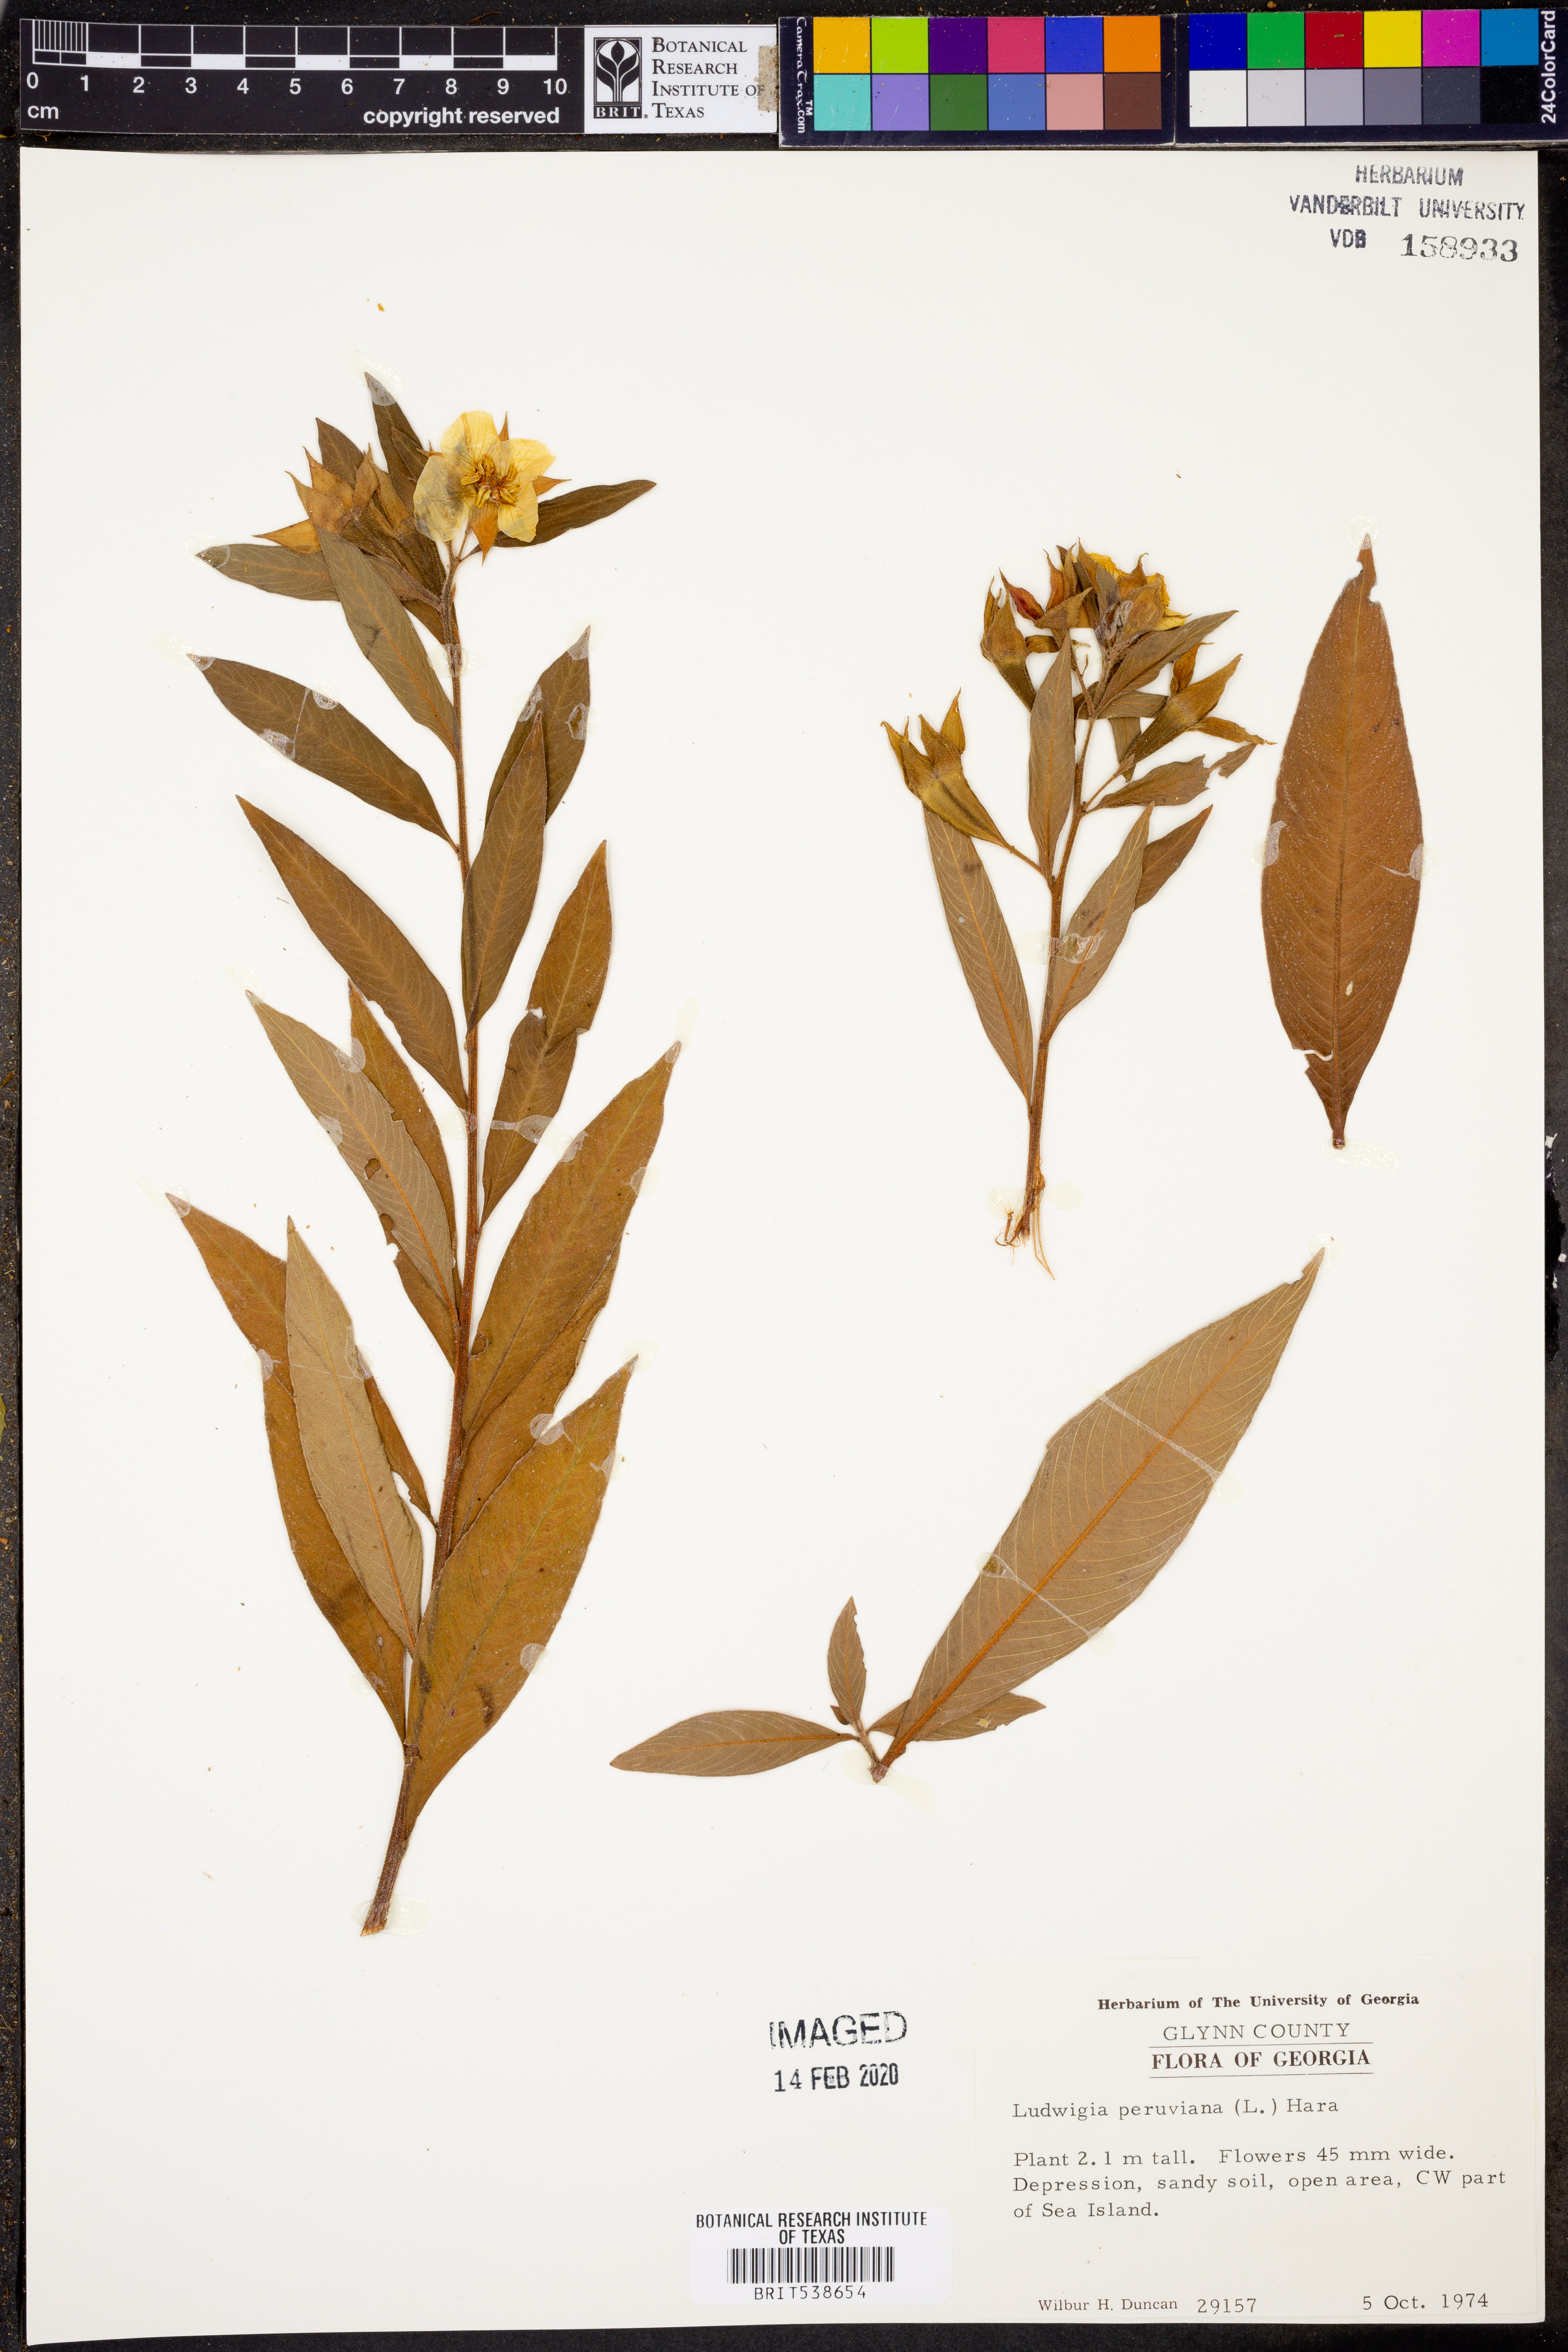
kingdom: Plantae
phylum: Tracheophyta
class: Magnoliopsida
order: Myrtales
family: Onagraceae
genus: Ludwigia
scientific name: Ludwigia peruviana
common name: Peruvian primrose-willow
